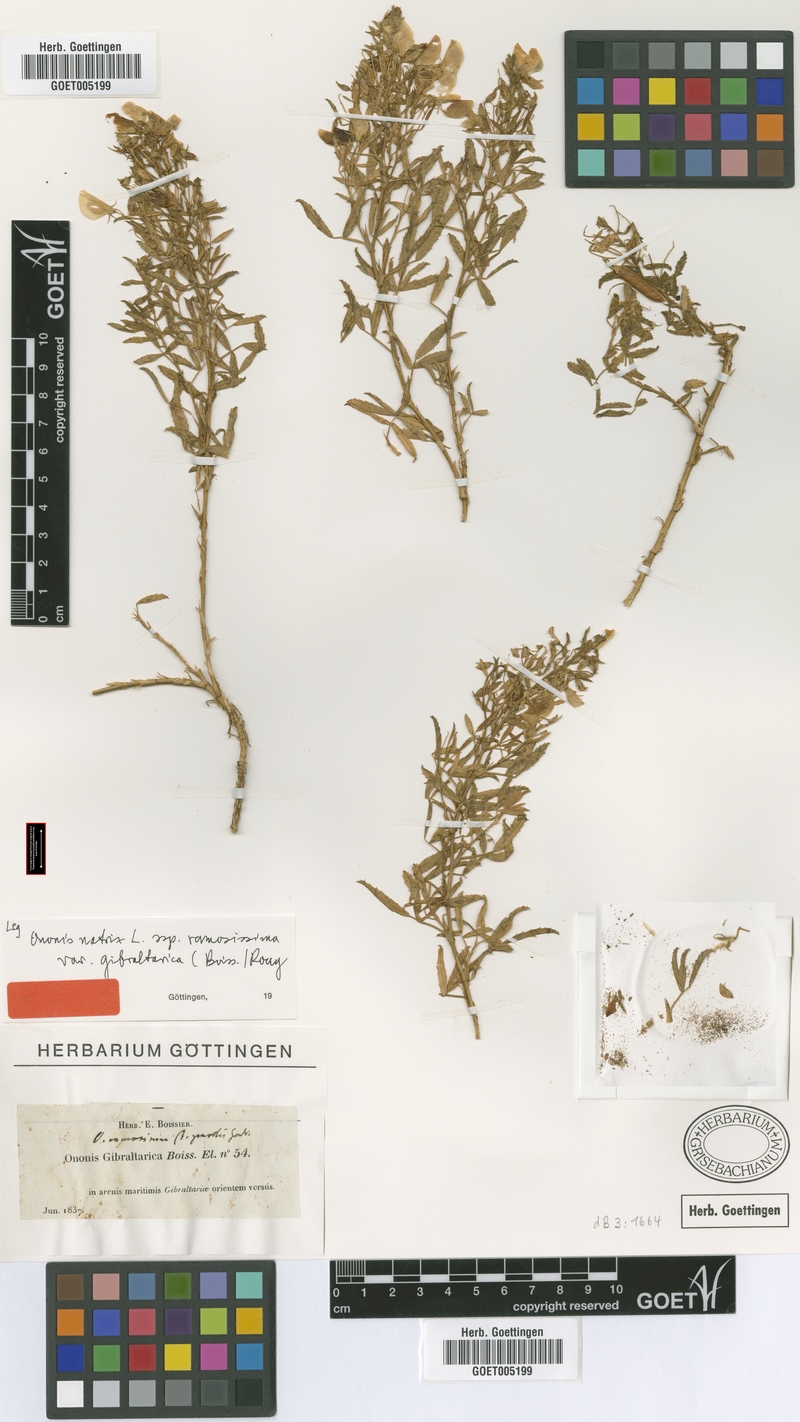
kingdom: Plantae
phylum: Tracheophyta
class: Magnoliopsida
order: Fabales
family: Fabaceae
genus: Ononis
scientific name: Ononis ramosissima
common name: Bush restharrow
